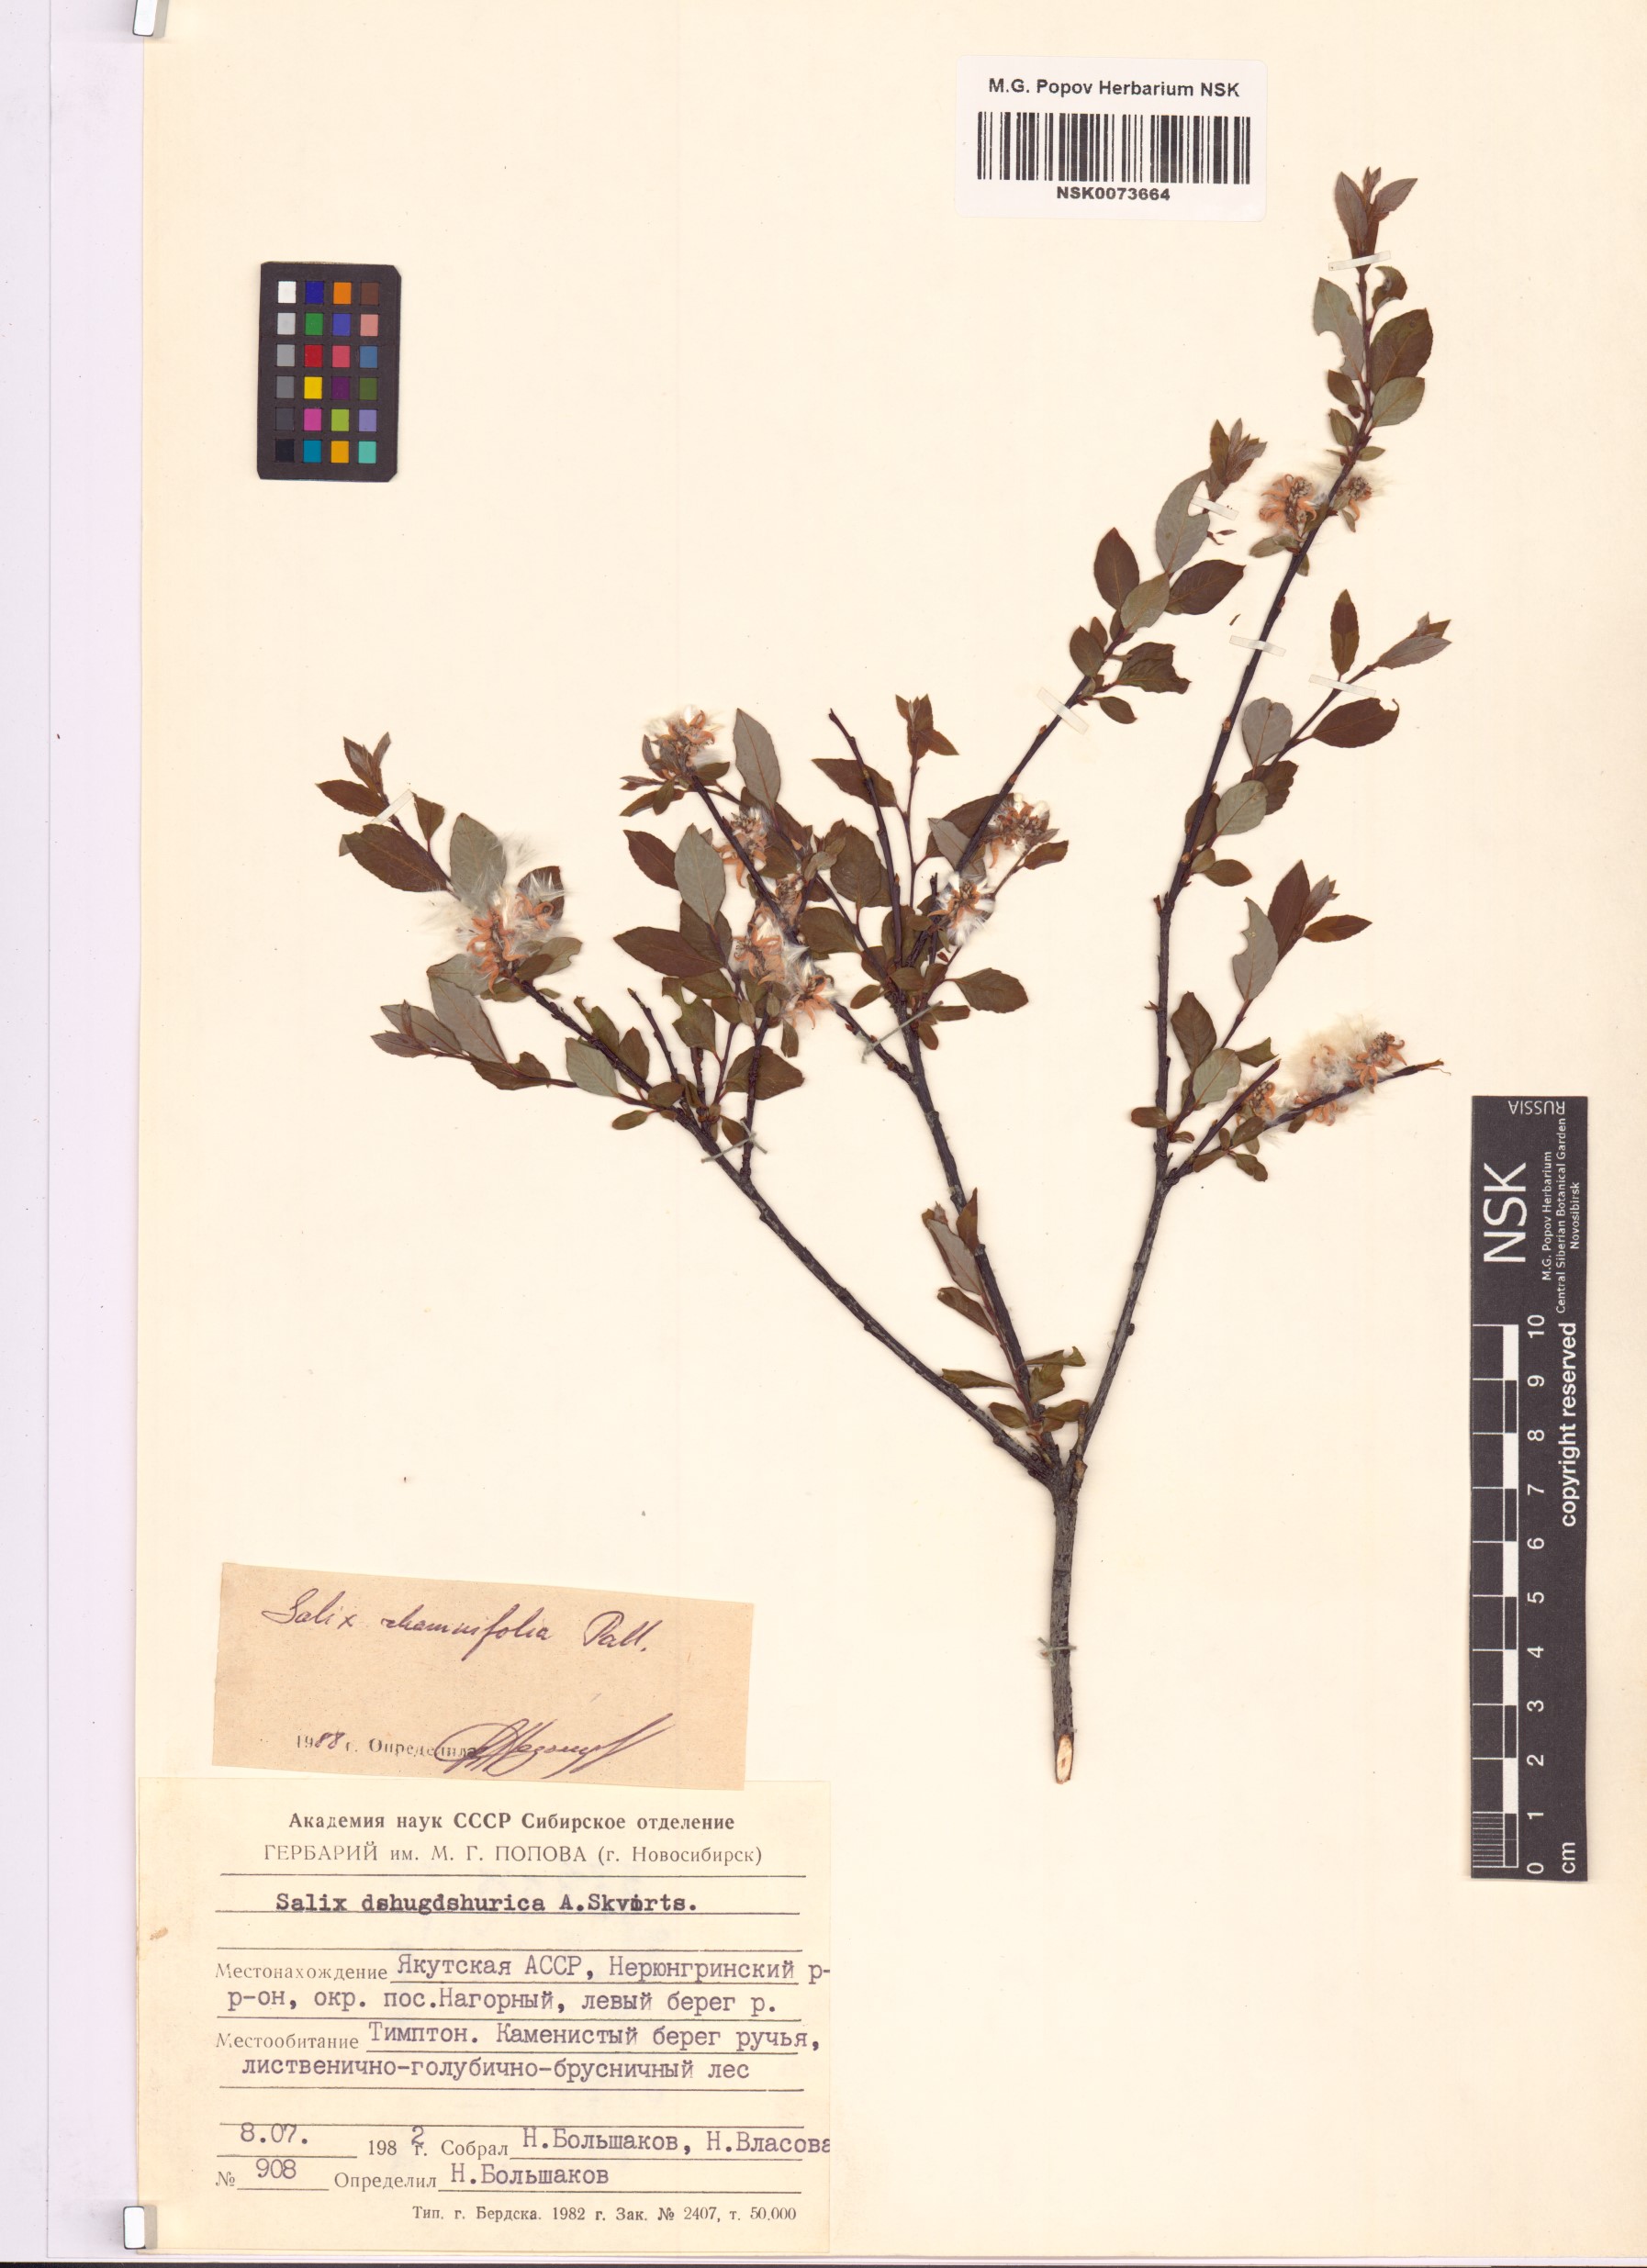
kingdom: Plantae
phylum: Tracheophyta
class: Magnoliopsida
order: Malpighiales
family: Salicaceae
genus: Salix
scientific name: Salix rhamnifolia
